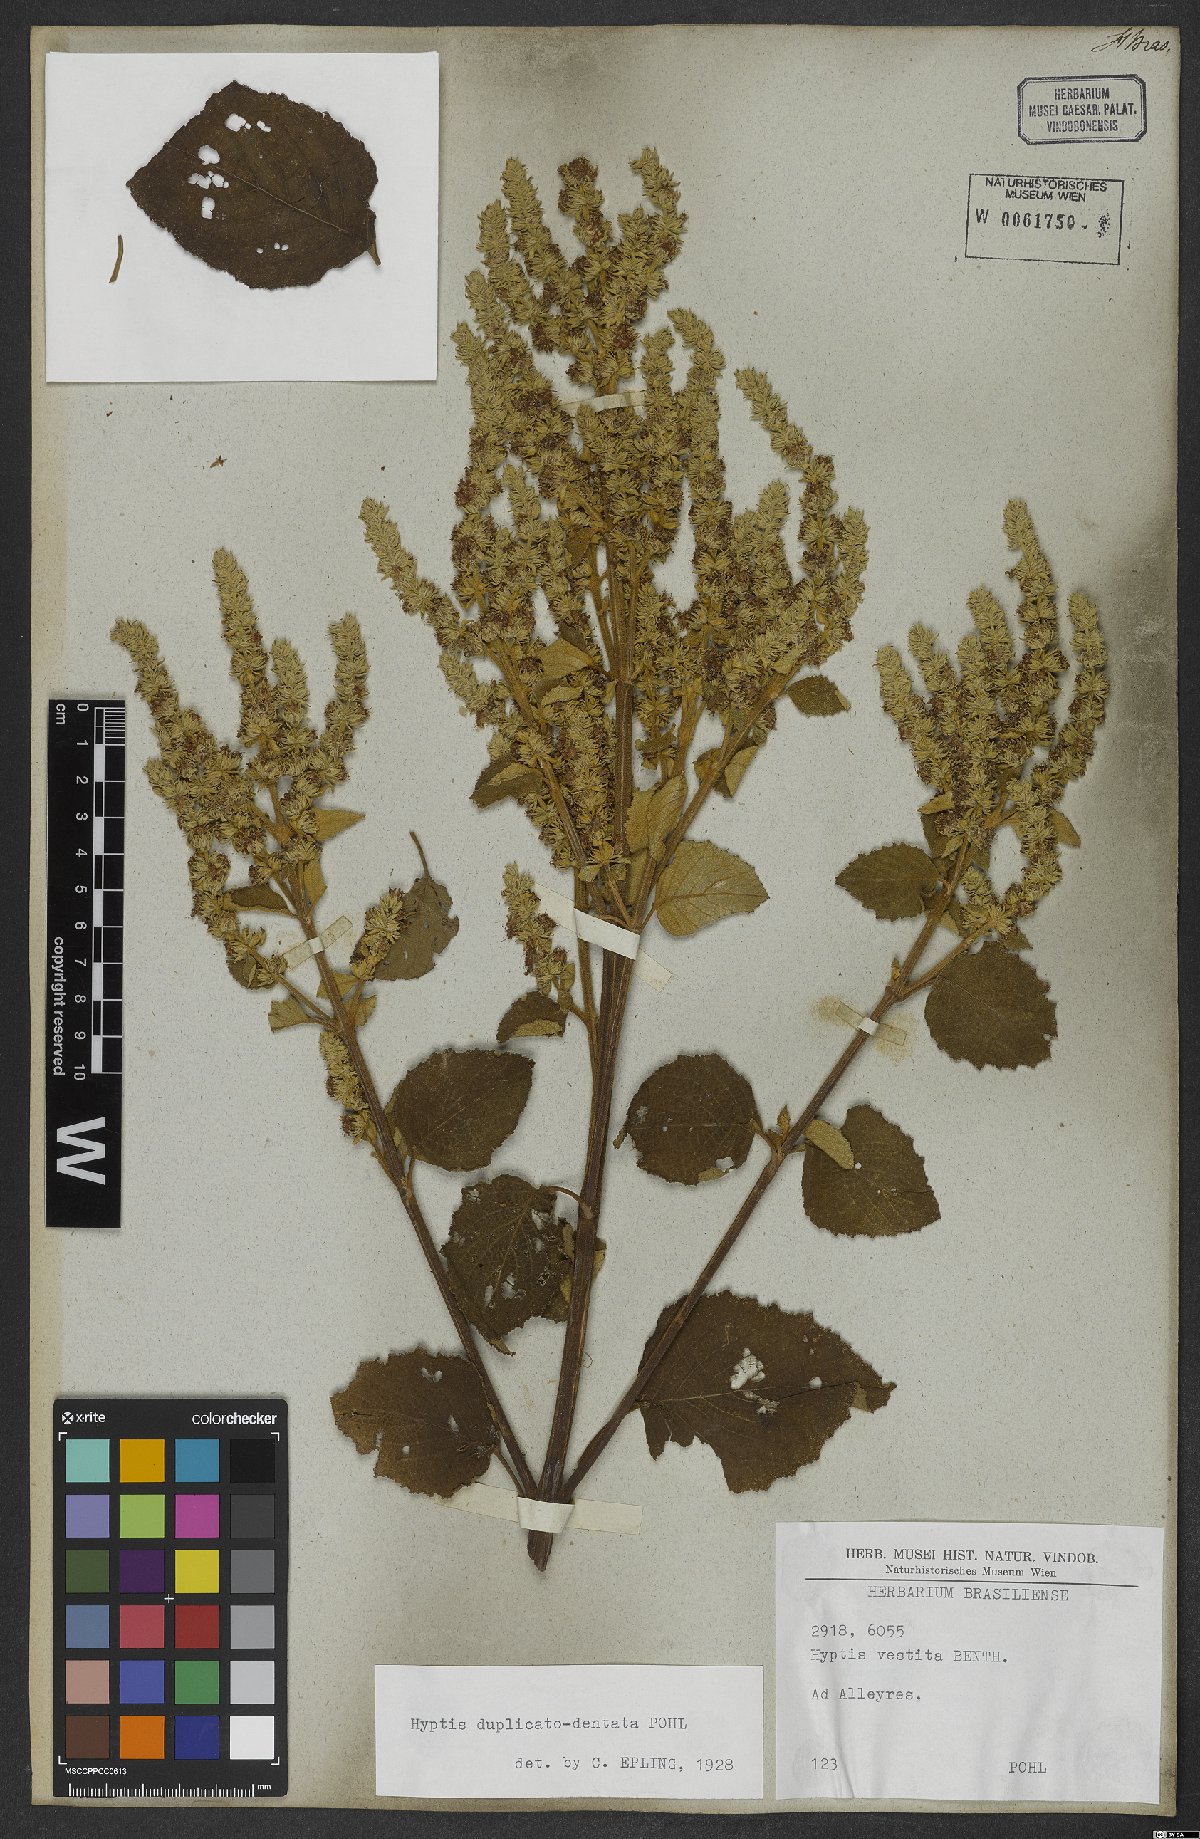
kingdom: Plantae
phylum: Tracheophyta
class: Magnoliopsida
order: Lamiales
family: Lamiaceae
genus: Cantinoa
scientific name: Cantinoa duplicatodentata
